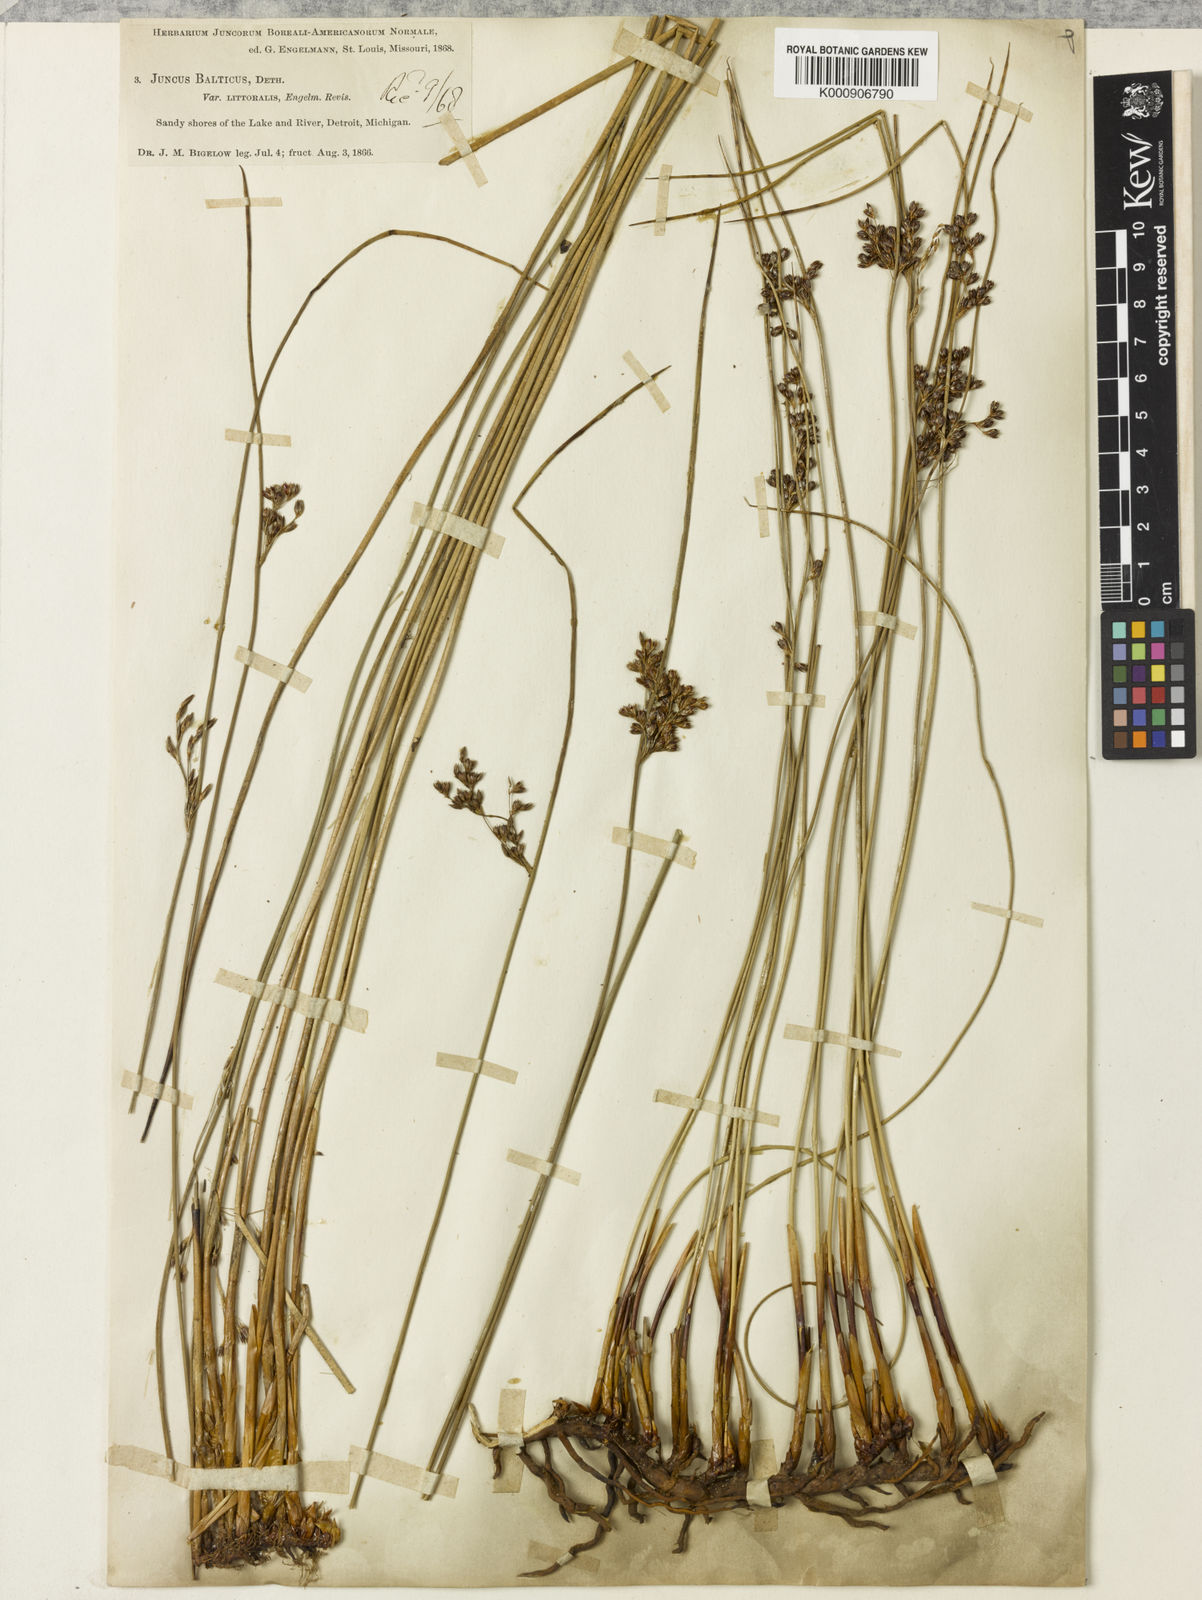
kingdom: Plantae
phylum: Tracheophyta
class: Liliopsida
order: Poales
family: Juncaceae
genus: Juncus
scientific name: Juncus balticus
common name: Baltic rush
